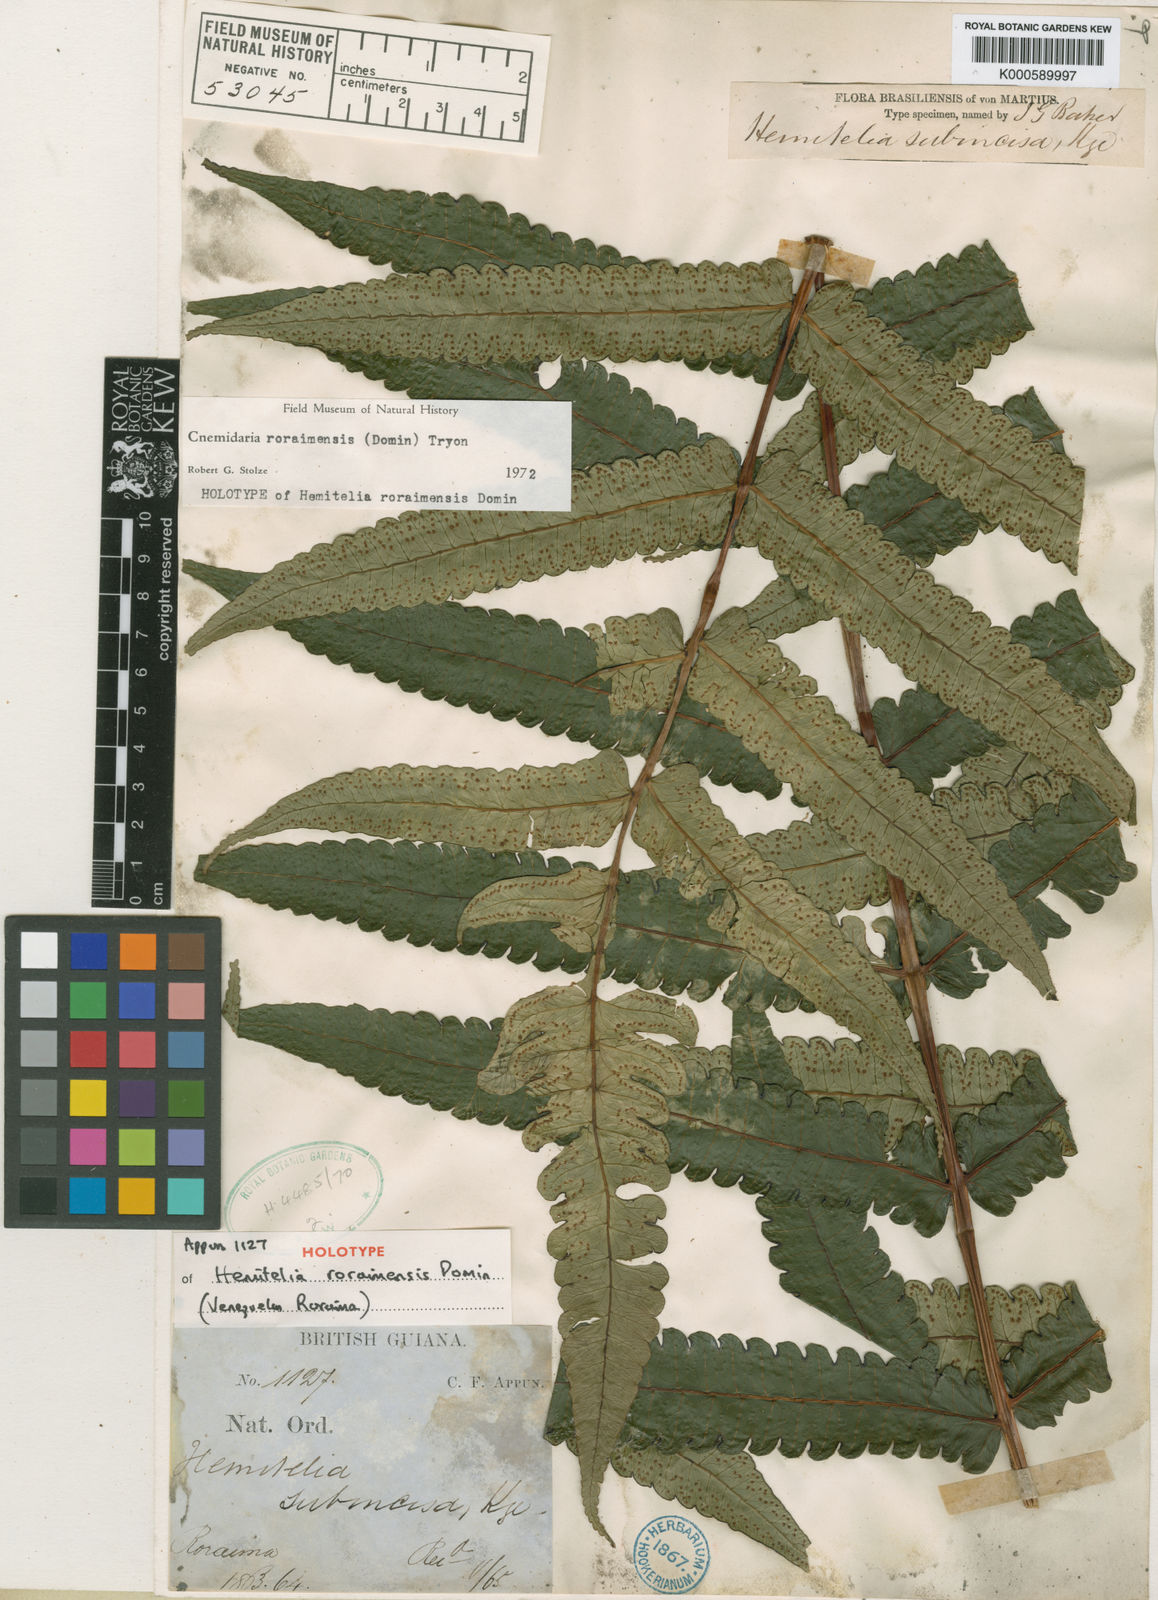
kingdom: Plantae
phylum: Tracheophyta
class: Polypodiopsida
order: Cyatheales
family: Cyatheaceae
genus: Cyathea
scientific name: Cyathea roraimensis
